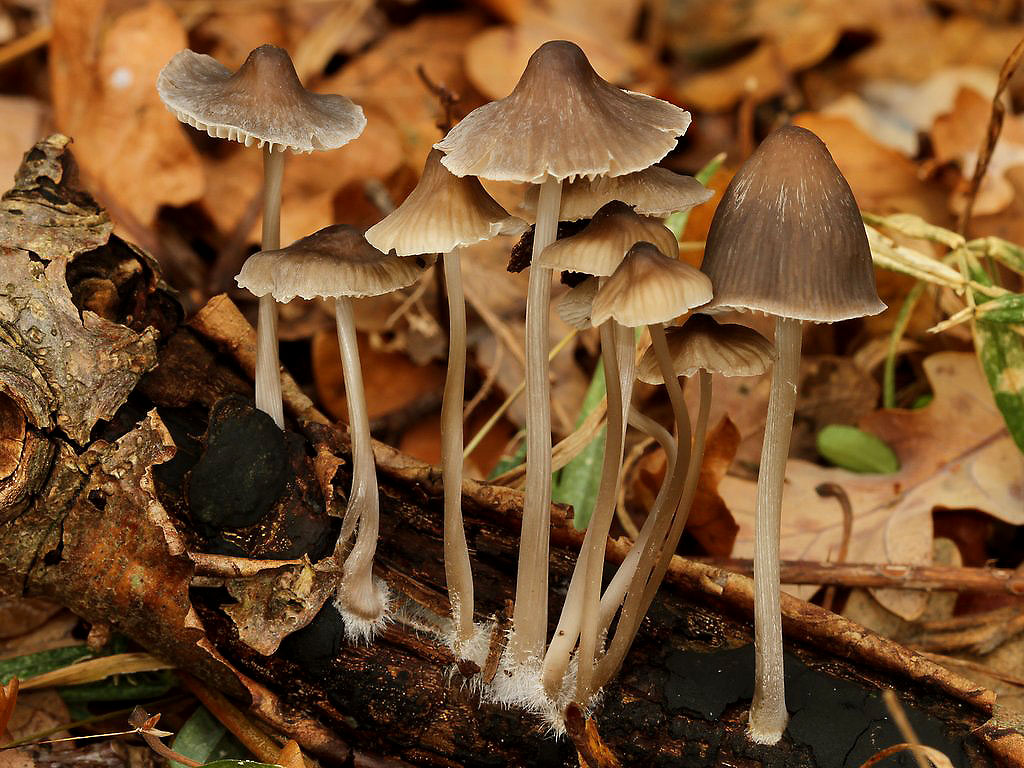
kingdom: Fungi
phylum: Basidiomycota
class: Agaricomycetes
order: Agaricales
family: Mycenaceae
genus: Mycena
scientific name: Mycena polygramma
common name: mangestribet huesvamp
